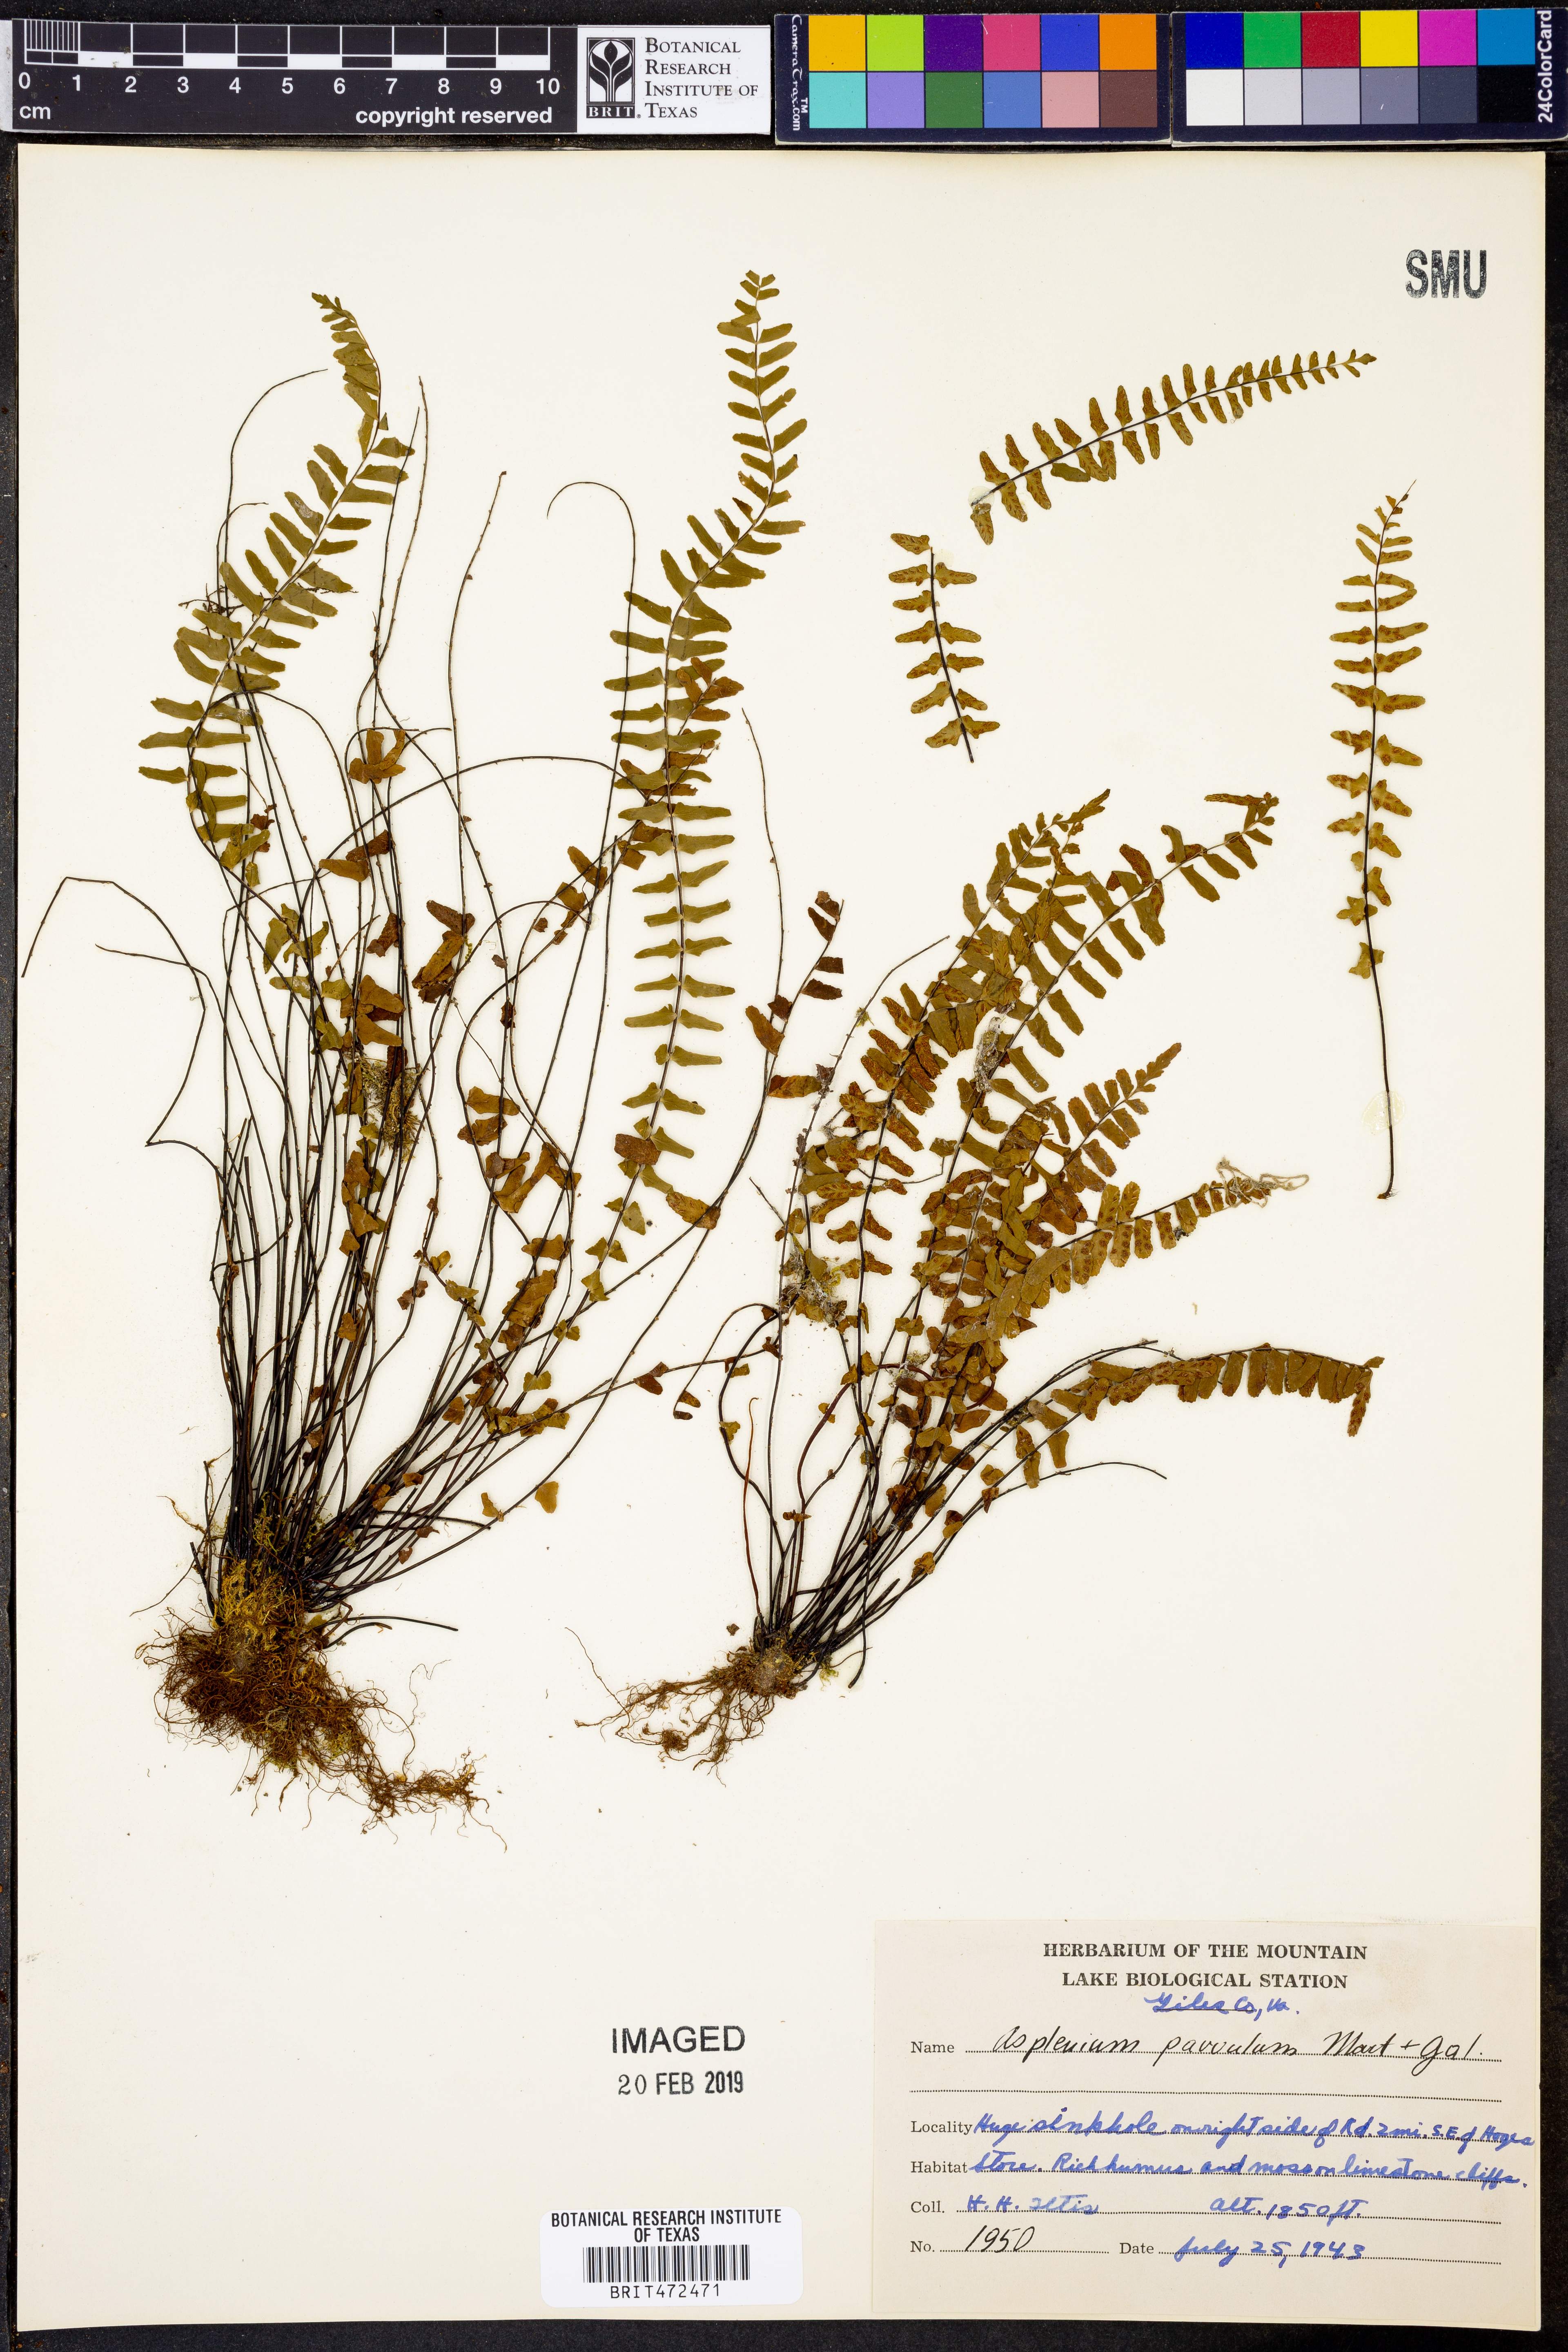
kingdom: Plantae
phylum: Tracheophyta
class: Polypodiopsida
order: Polypodiales
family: Aspleniaceae
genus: Asplenium
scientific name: Asplenium laciniatum
